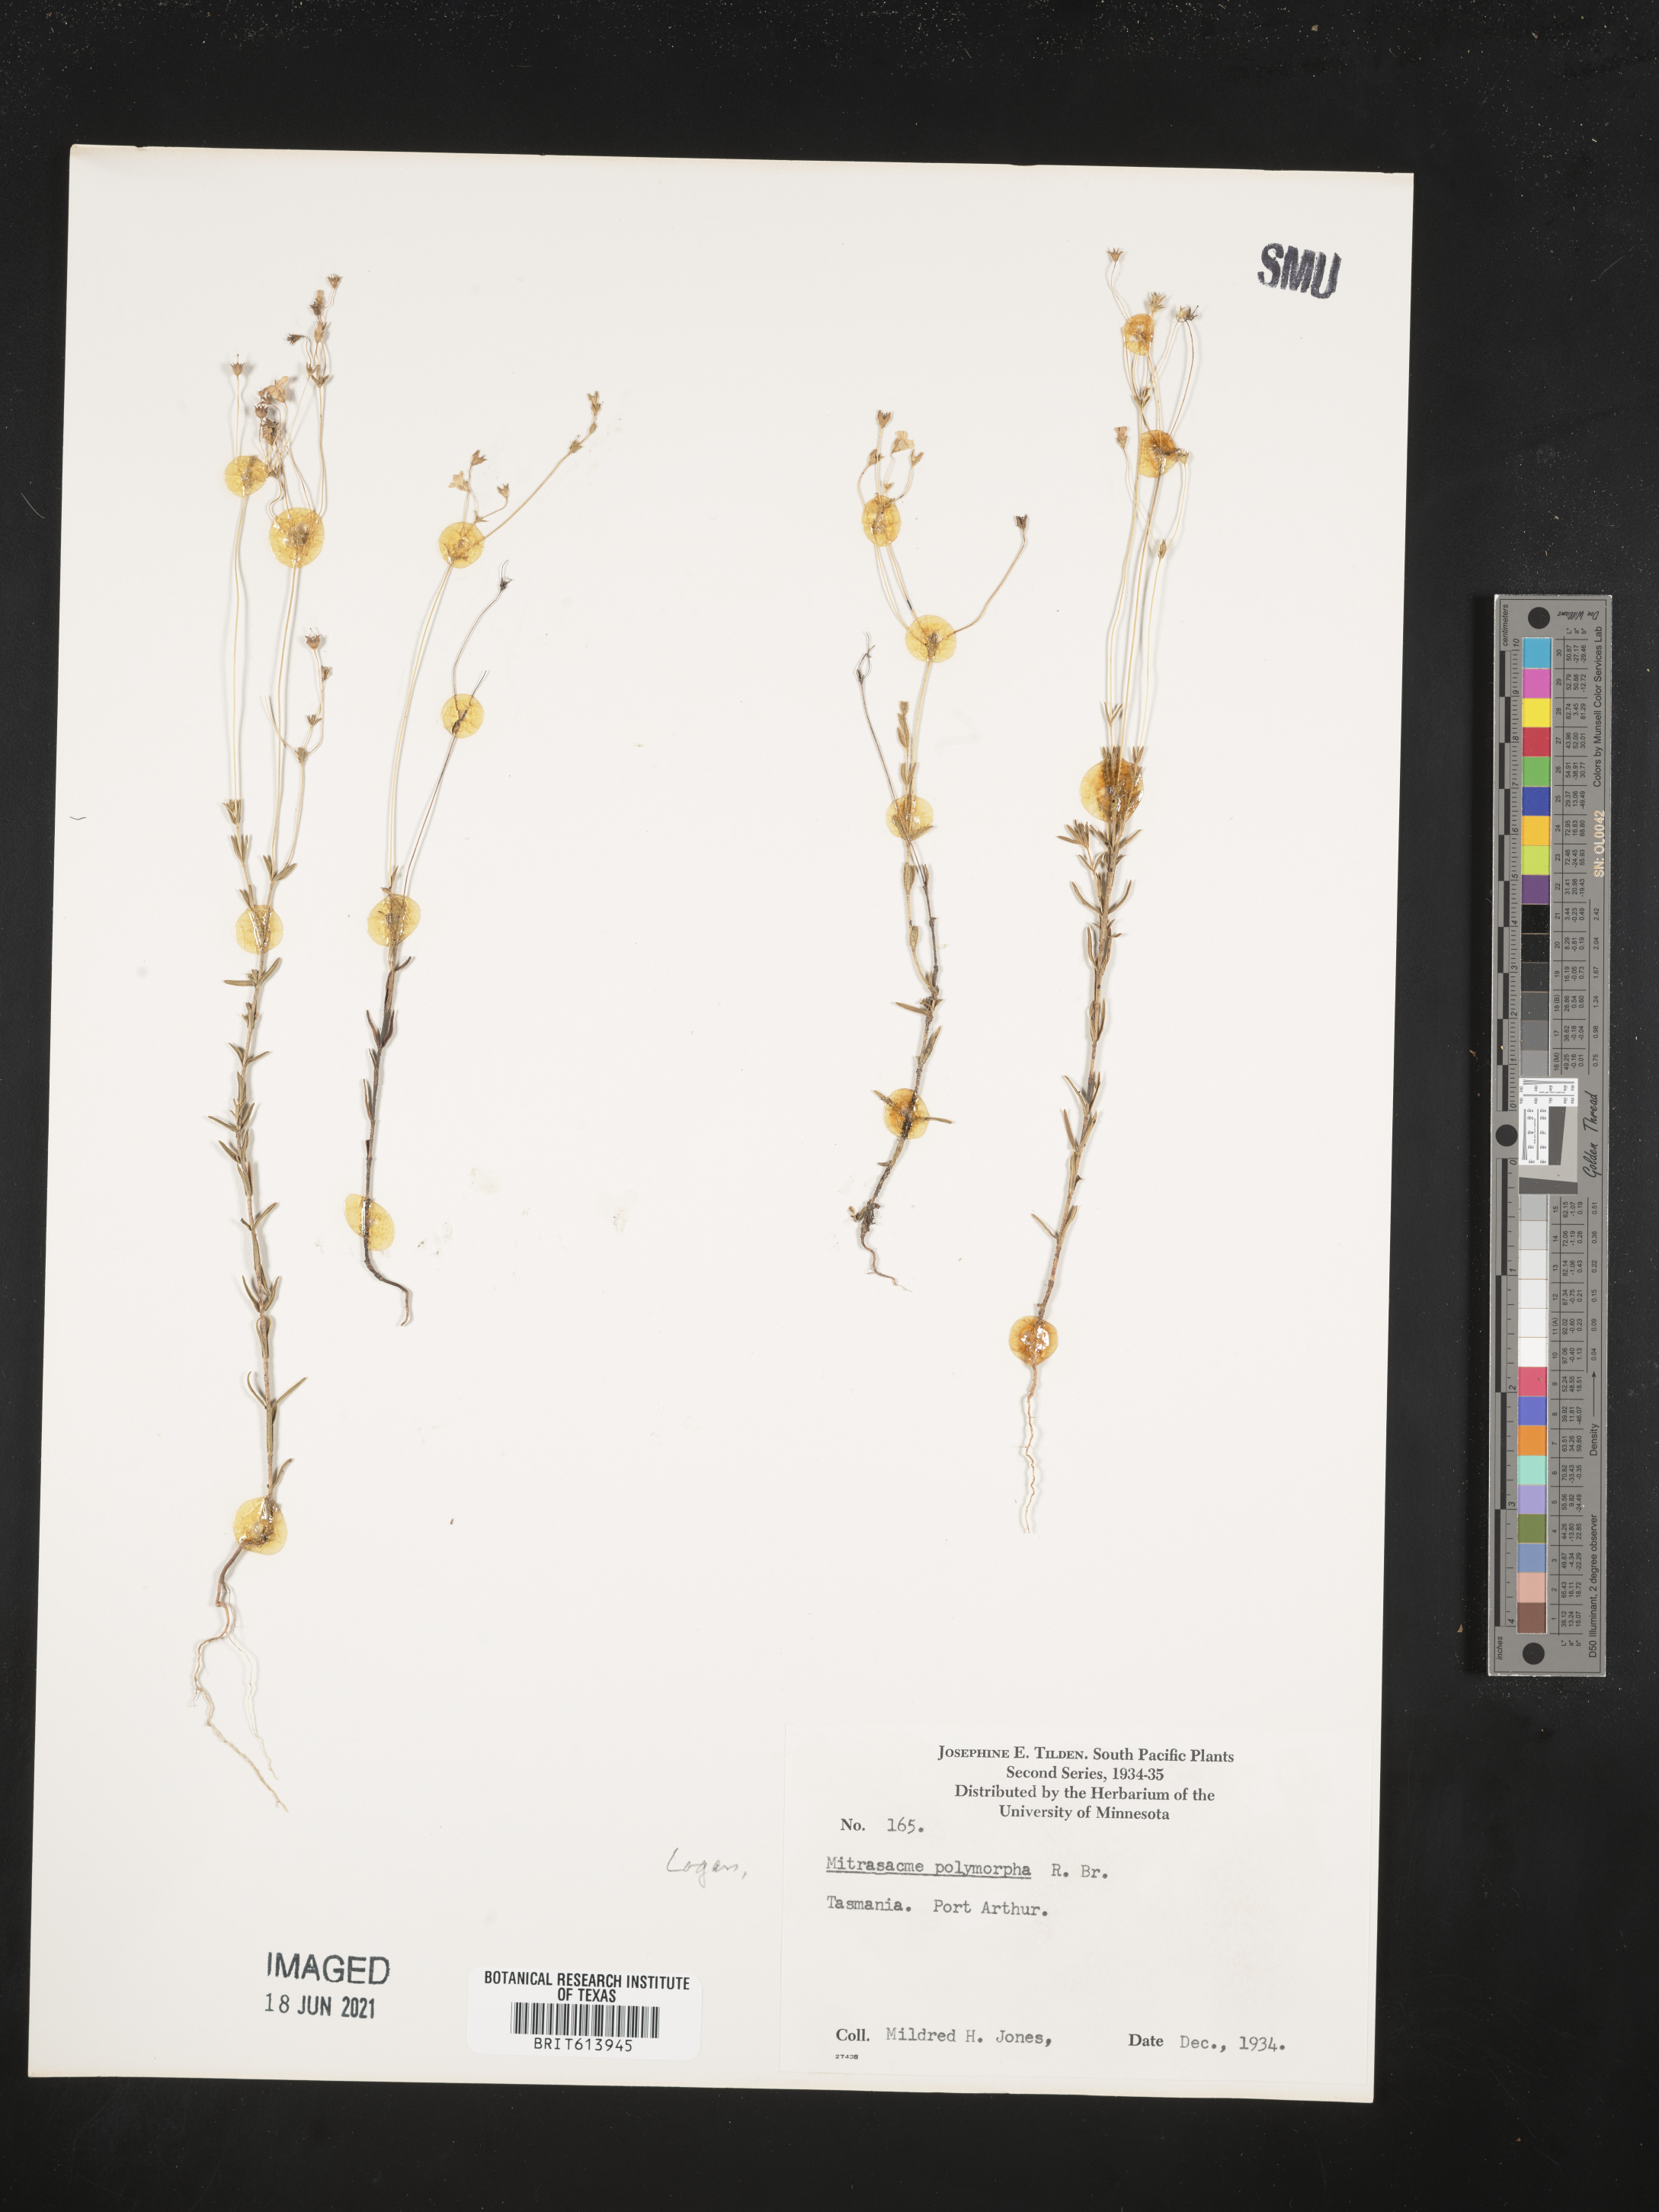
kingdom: Plantae
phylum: Tracheophyta
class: Magnoliopsida
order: Gentianales
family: Loganiaceae
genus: Mitrasacme
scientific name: Mitrasacme polymorpha
